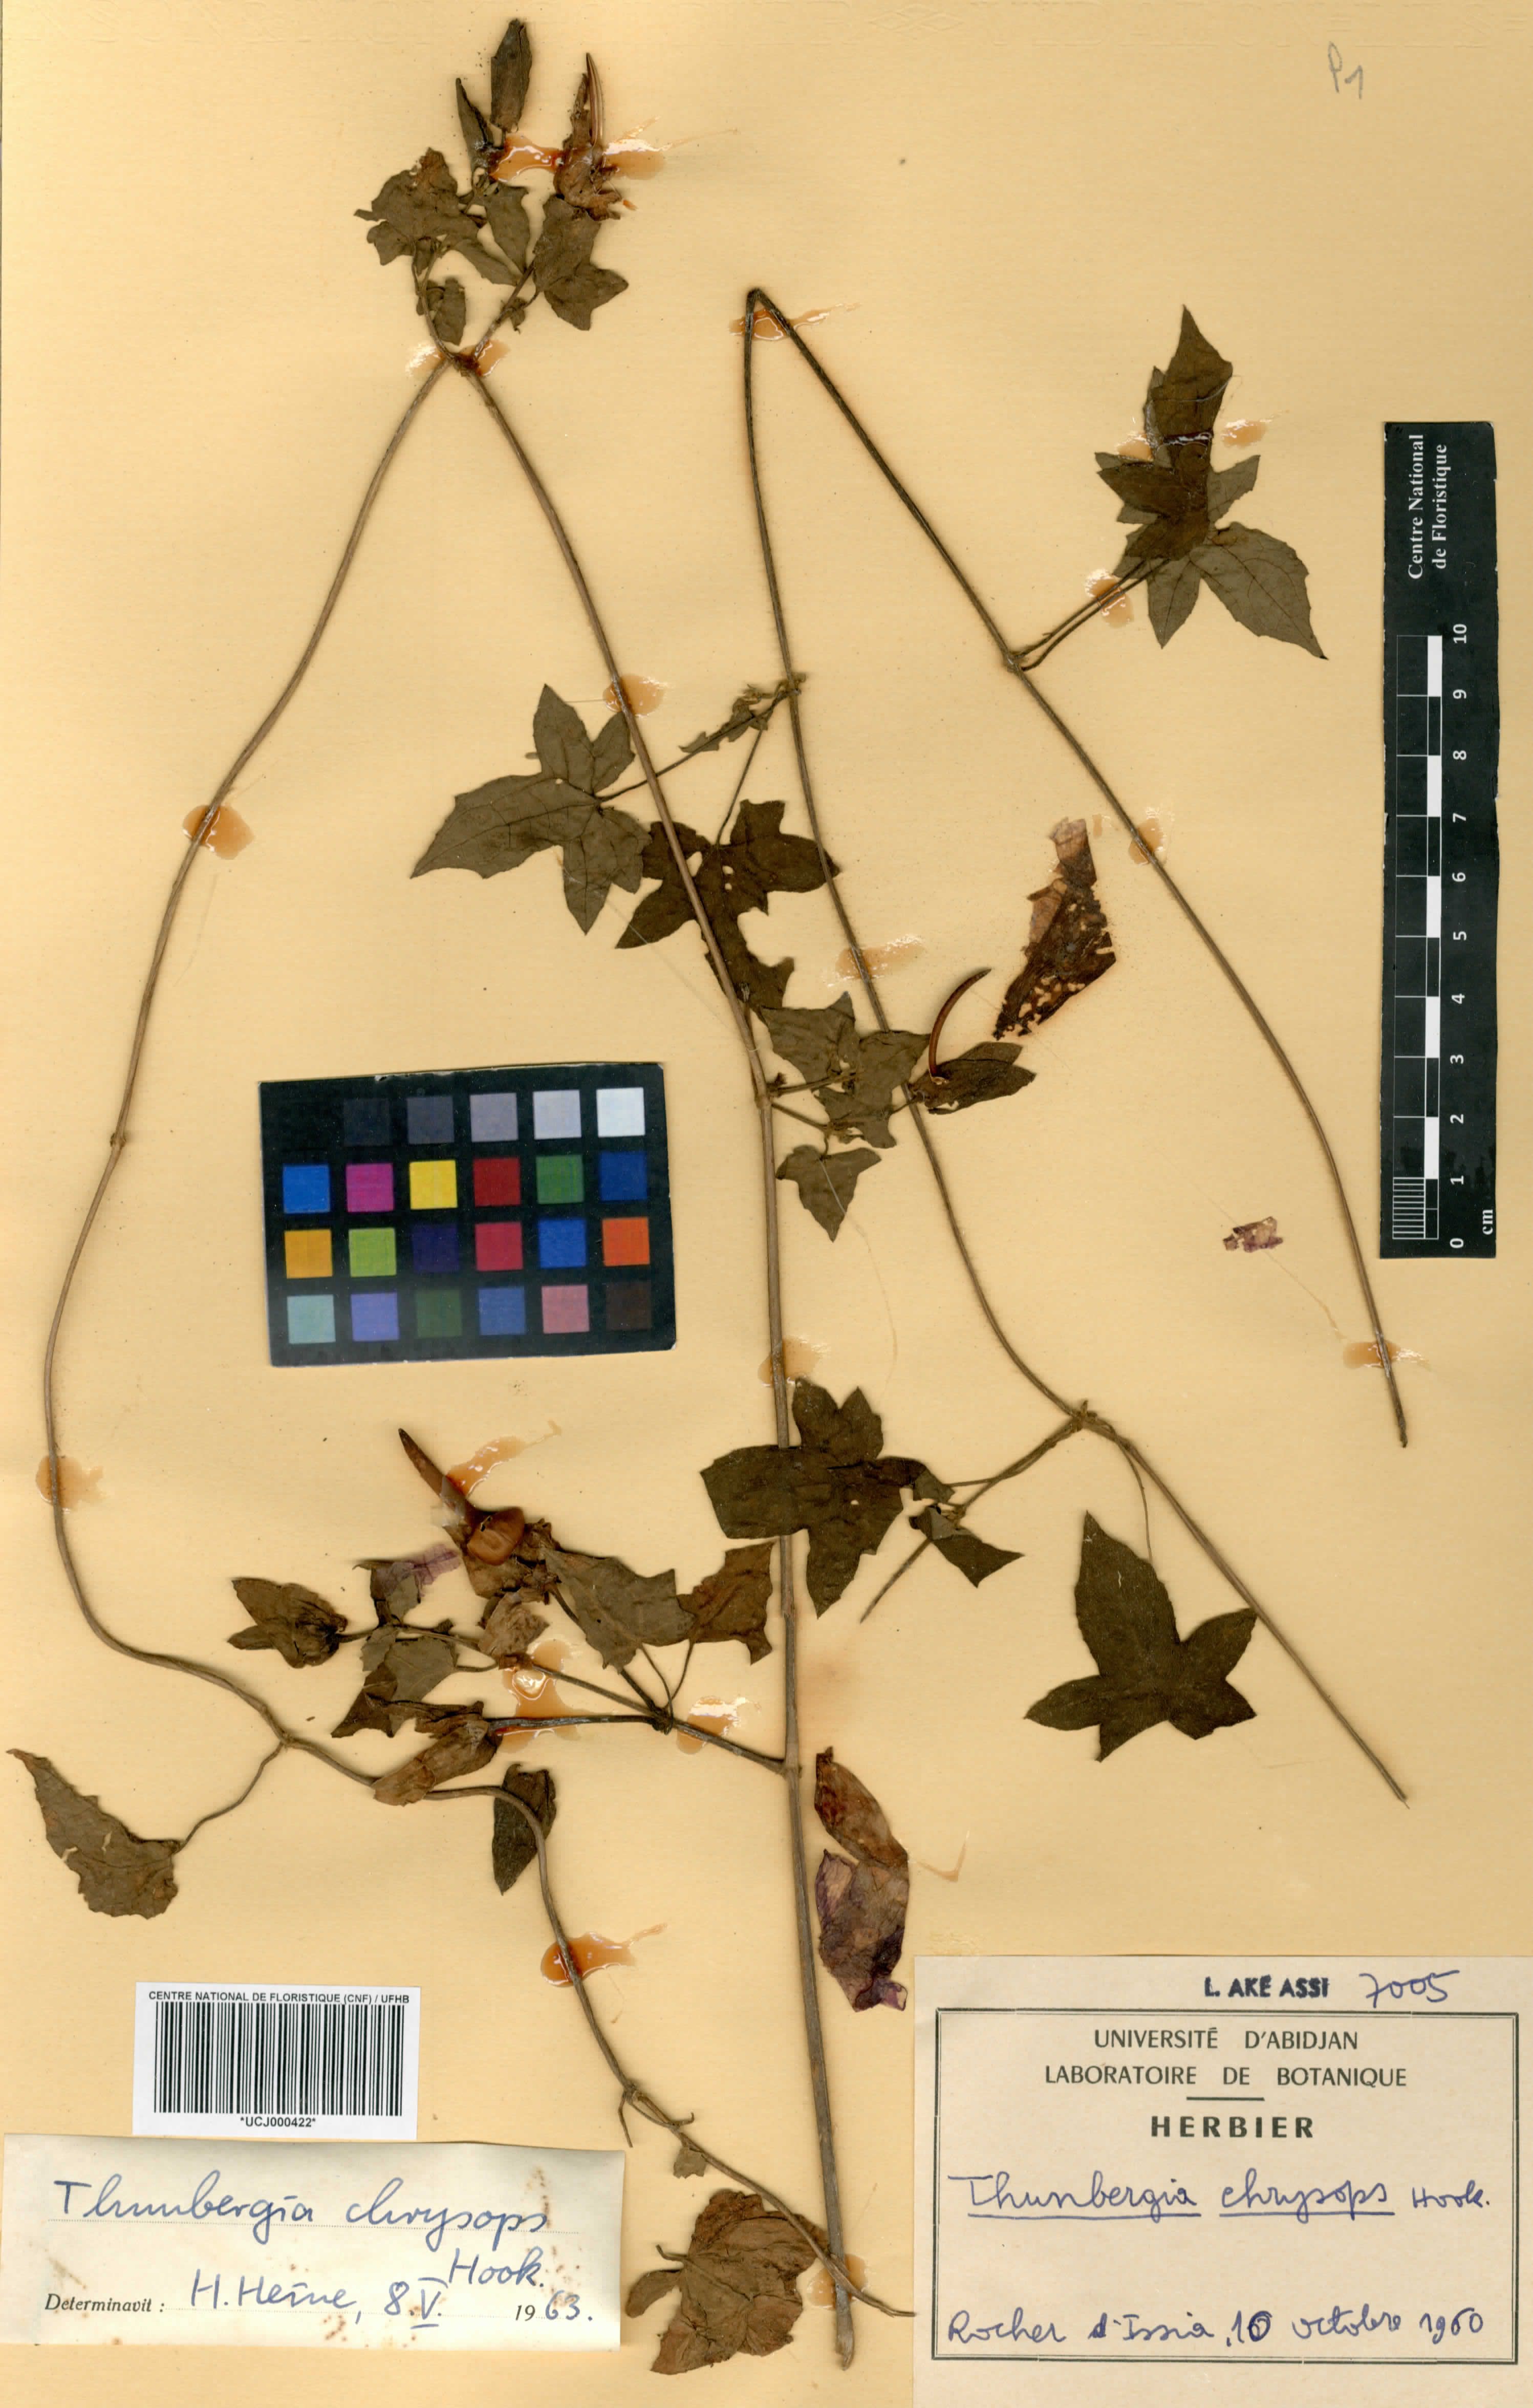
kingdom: Plantae
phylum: Tracheophyta
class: Magnoliopsida
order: Lamiales
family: Acanthaceae
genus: Thunbergia
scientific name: Thunbergia chrysops
